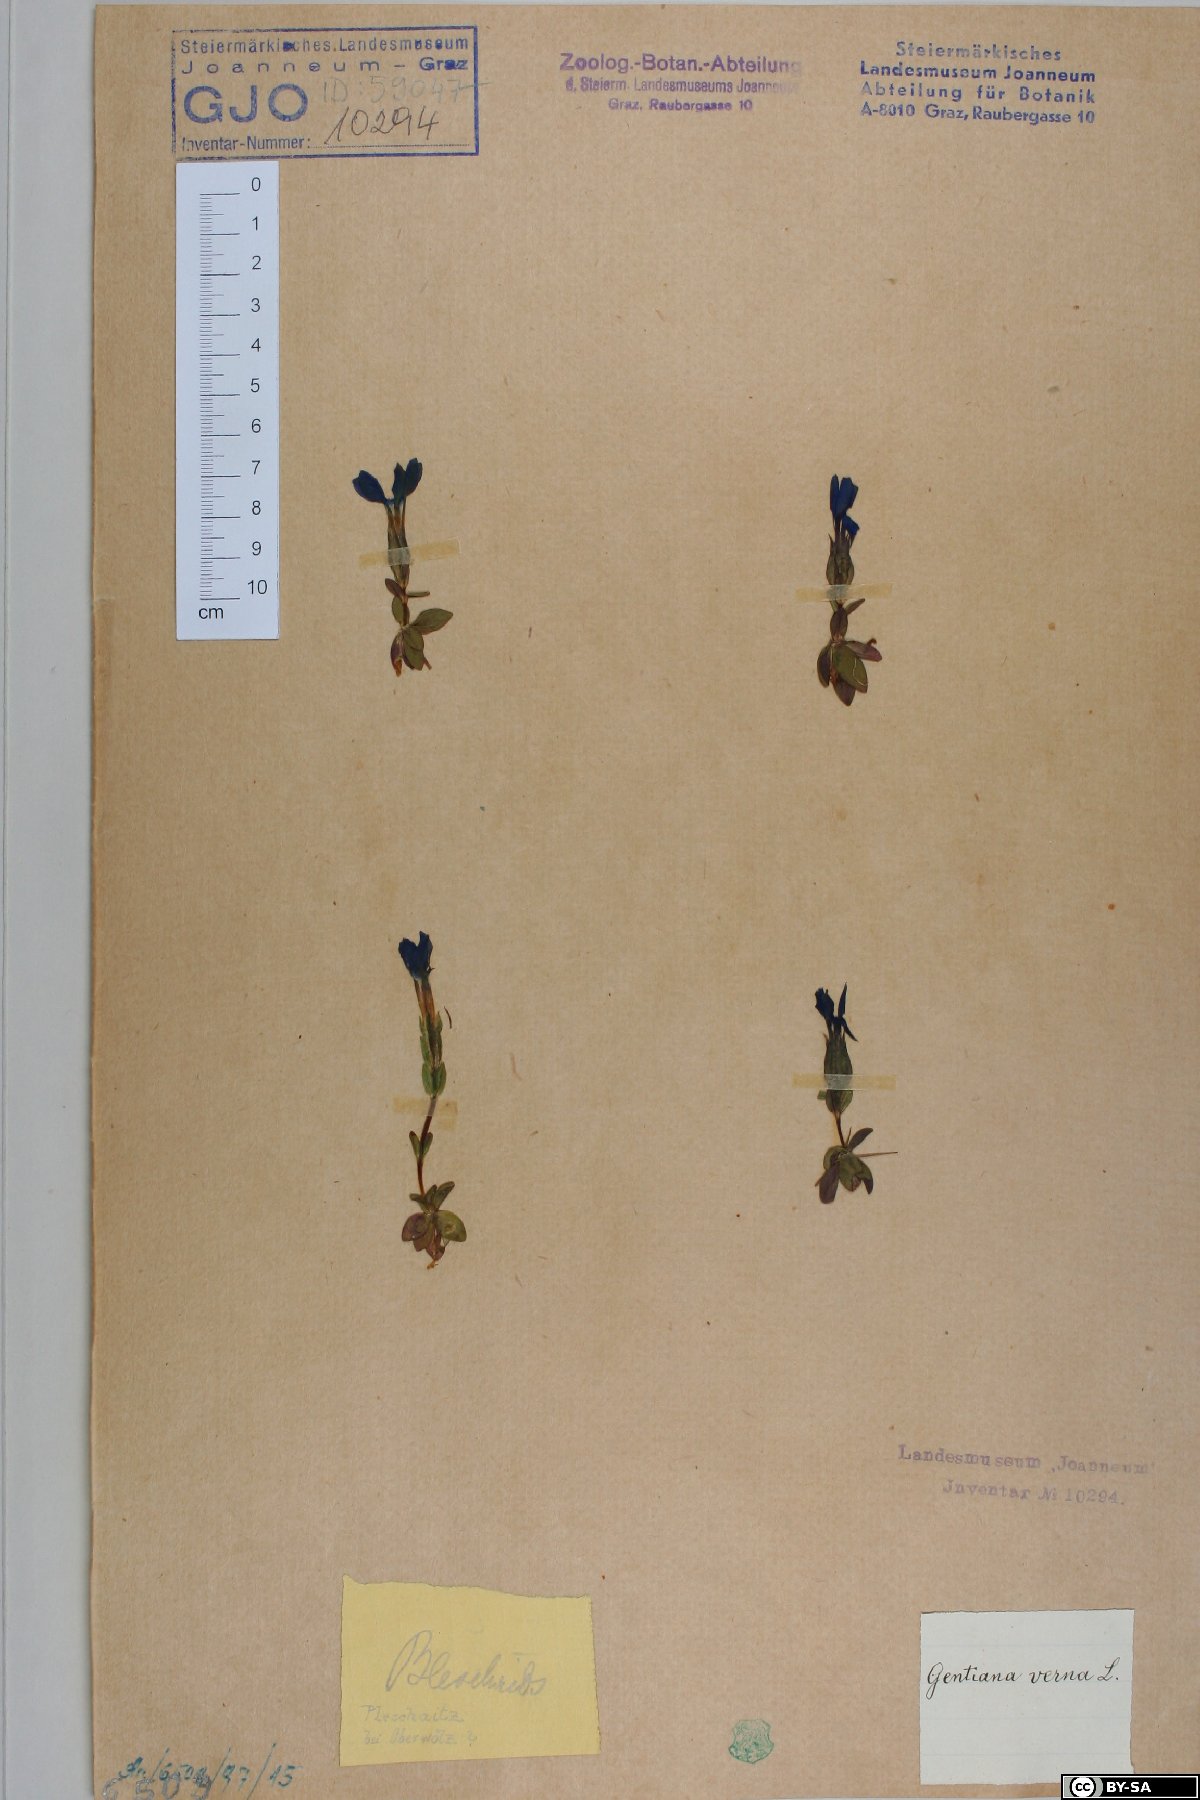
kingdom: Plantae
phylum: Tracheophyta
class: Magnoliopsida
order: Gentianales
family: Gentianaceae
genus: Gentiana
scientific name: Gentiana verna
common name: Spring gentian
